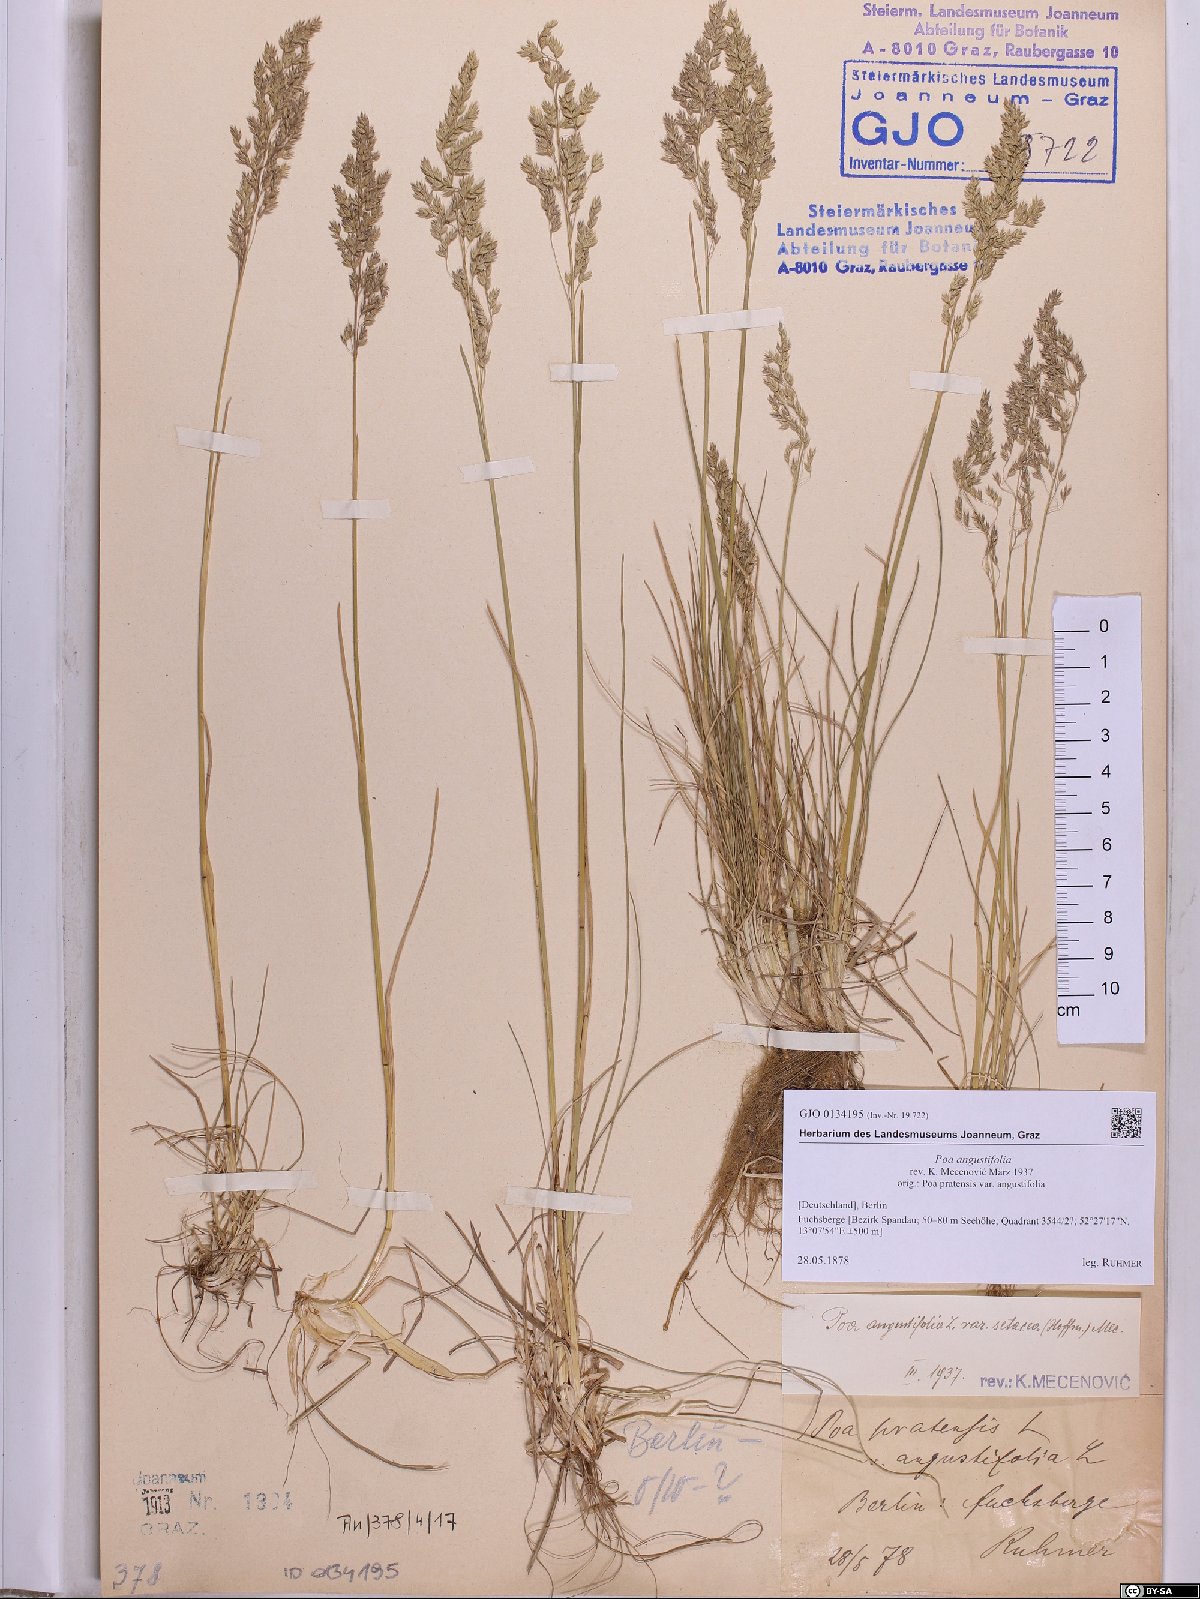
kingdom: Plantae
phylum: Tracheophyta
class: Liliopsida
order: Poales
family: Poaceae
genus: Poa
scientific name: Poa angustifolia
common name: Narrow-leaved meadow-grass
